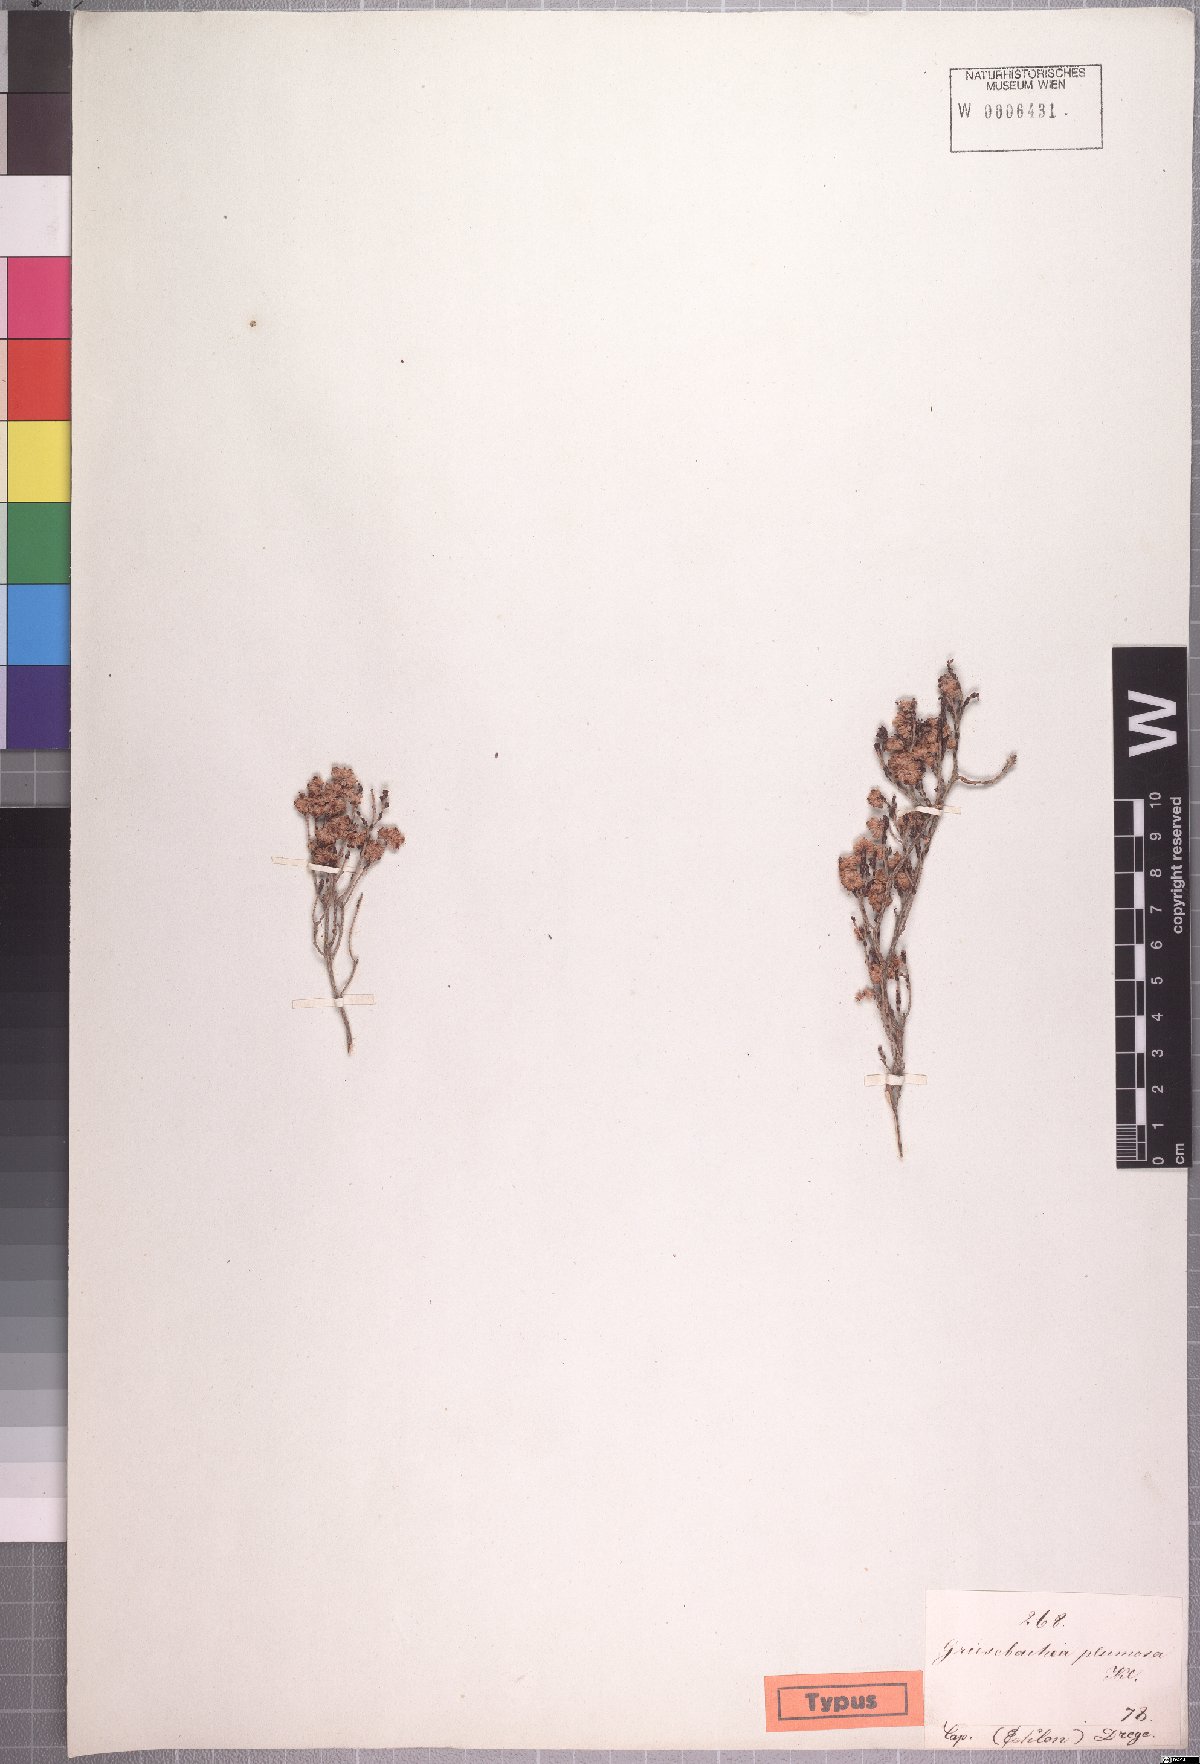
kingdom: Plantae
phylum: Tracheophyta
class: Magnoliopsida
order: Ericales
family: Ericaceae
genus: Erica
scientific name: Erica plumosa
